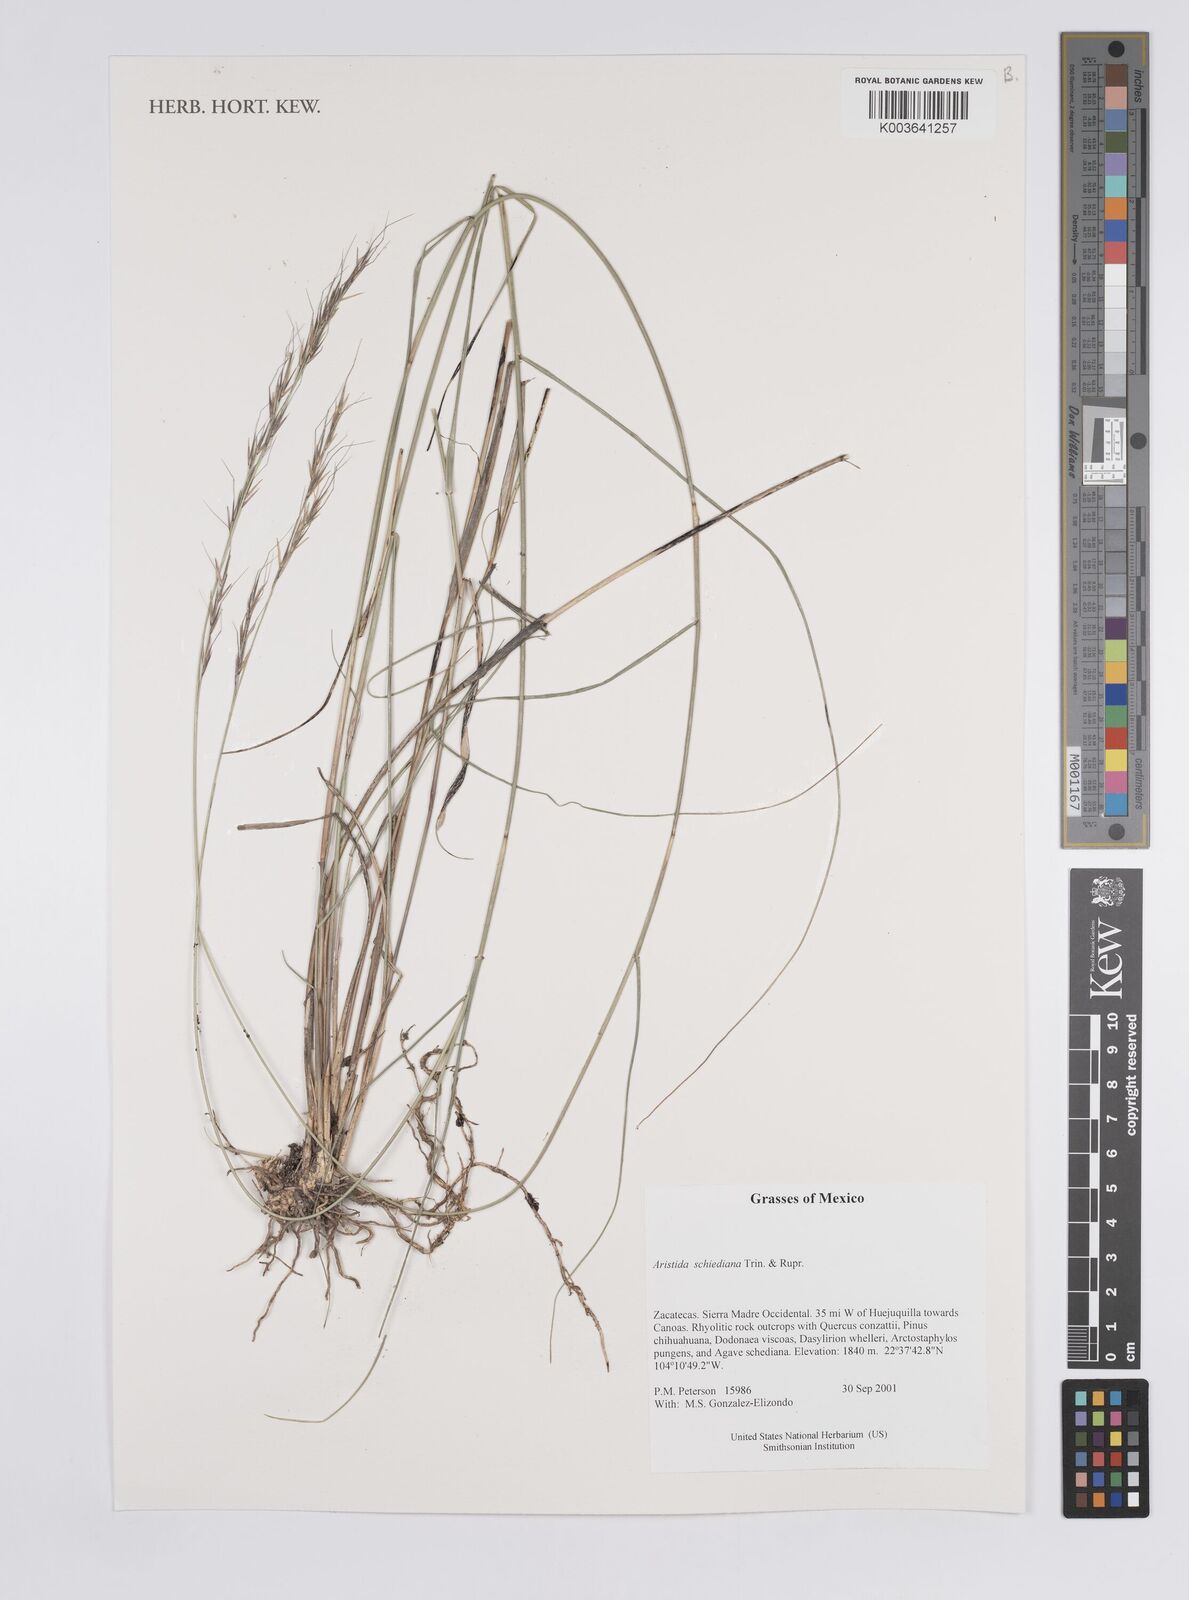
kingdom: Plantae
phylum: Tracheophyta
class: Liliopsida
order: Poales
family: Poaceae
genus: Aristida
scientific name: Aristida schiedeana
